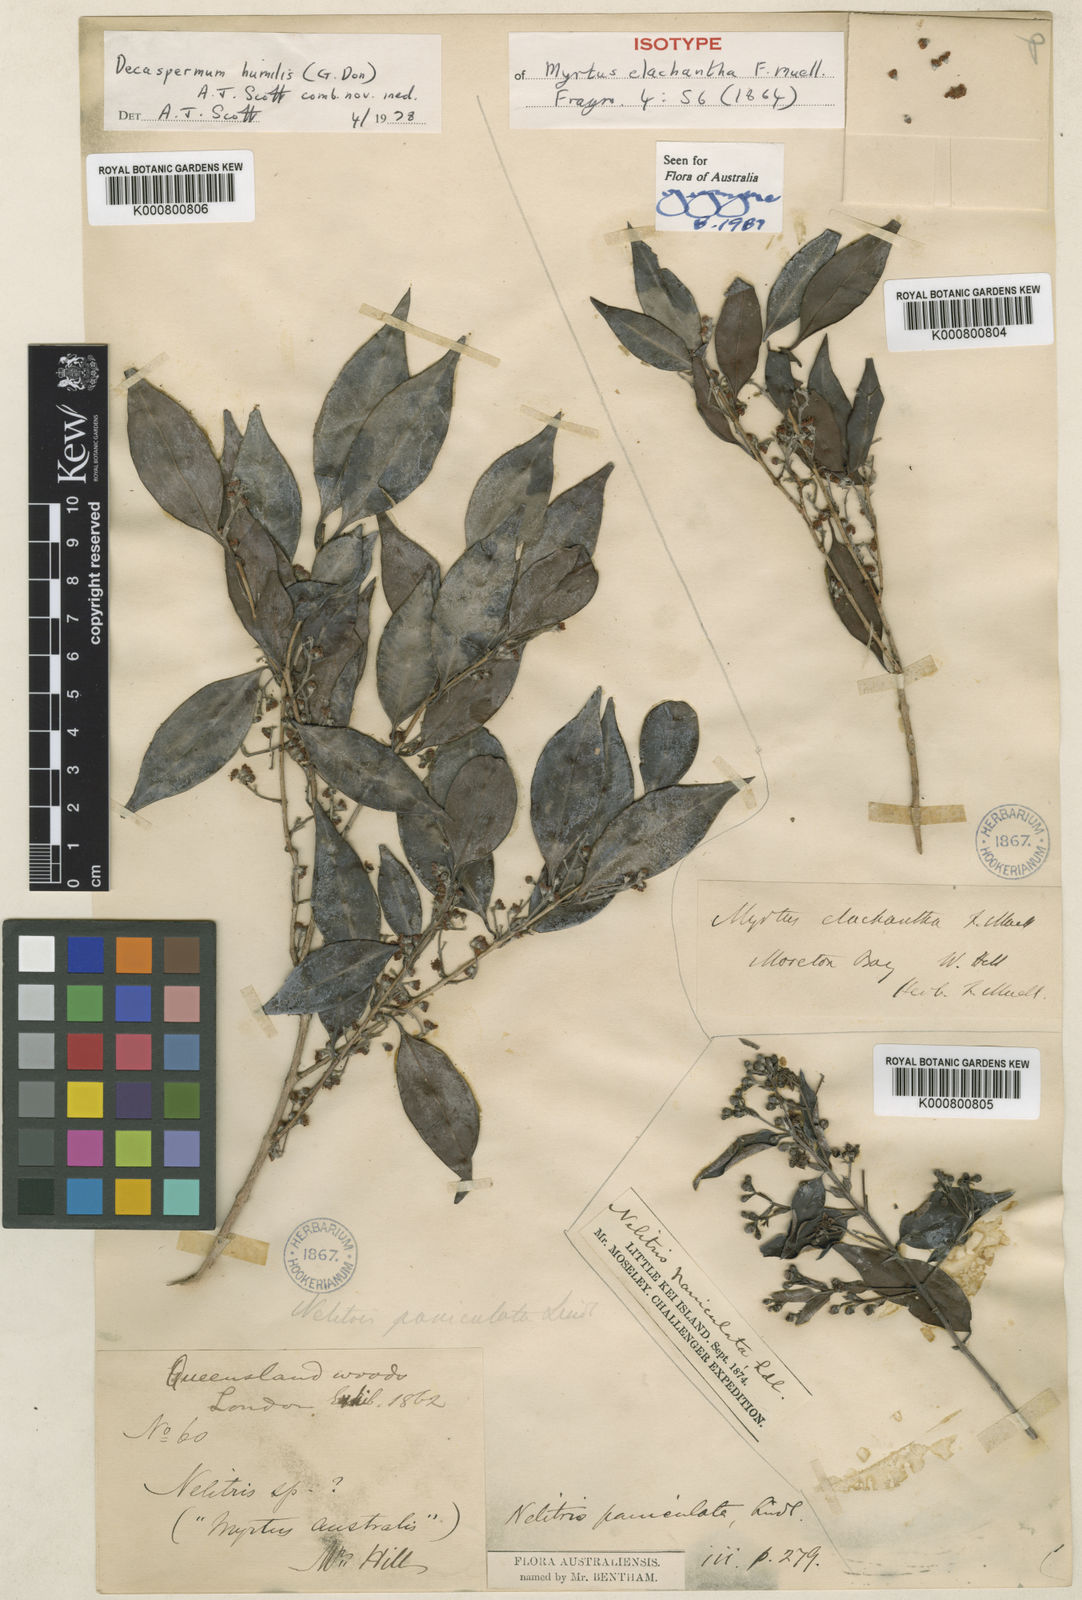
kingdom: Plantae
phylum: Tracheophyta
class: Magnoliopsida
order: Myrtales
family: Myrtaceae
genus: Decaspermum
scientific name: Decaspermum fruticosum
